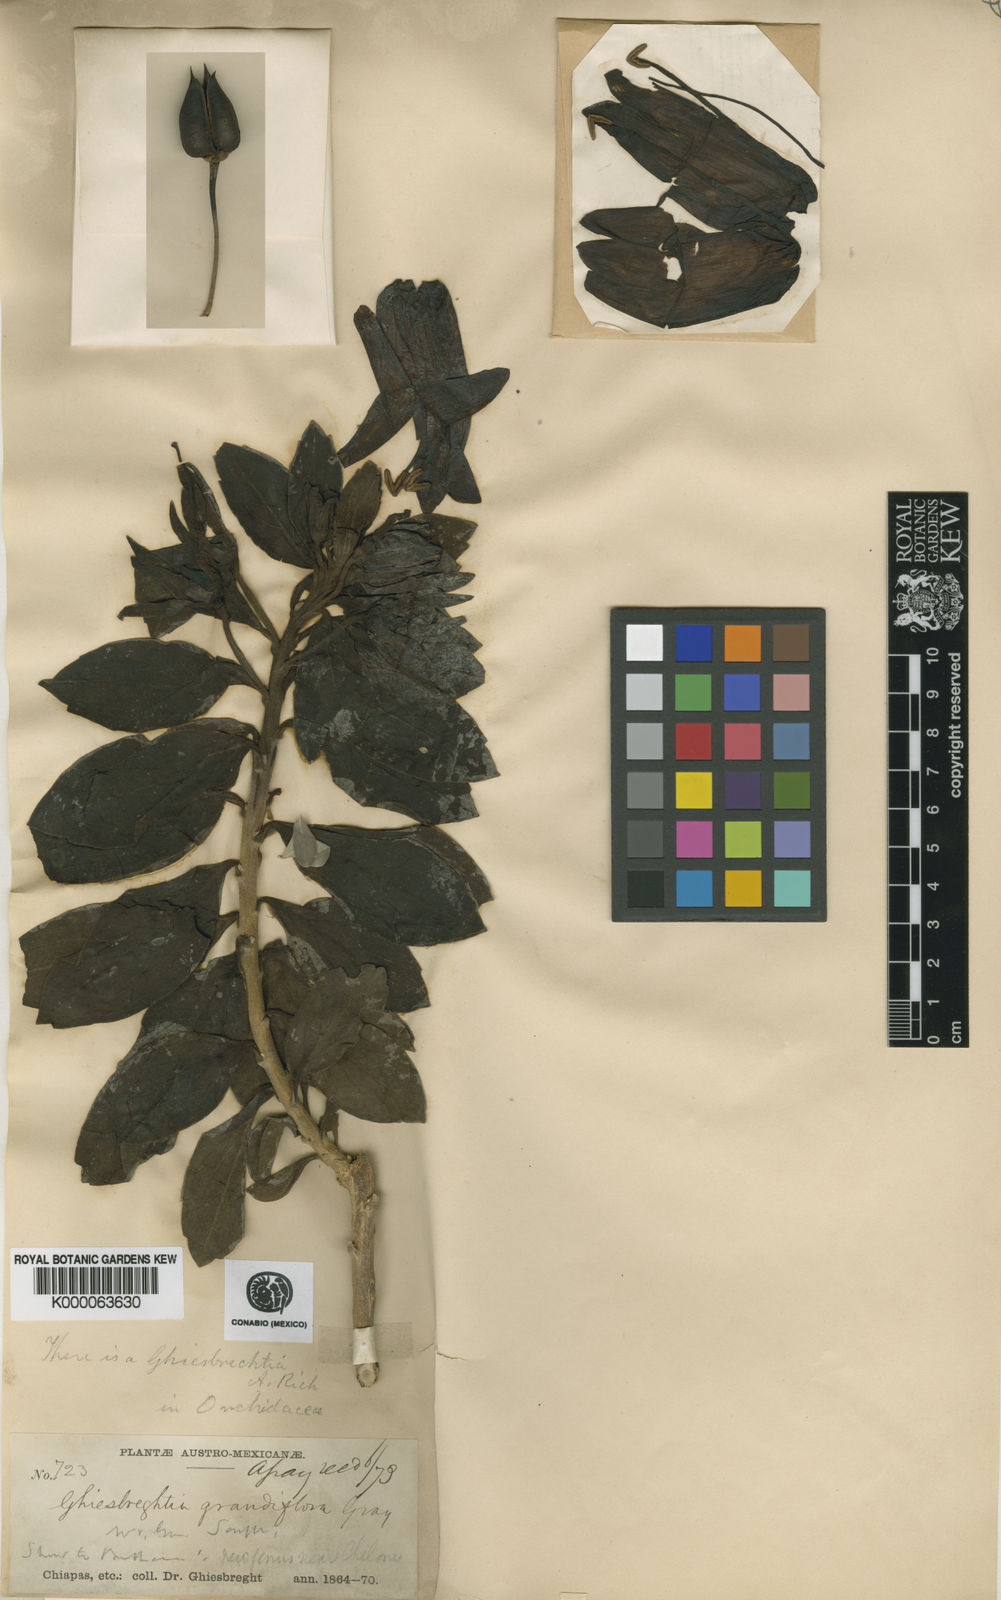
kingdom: Plantae
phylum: Tracheophyta
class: Magnoliopsida
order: Lamiales
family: Scrophulariaceae
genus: Eremogeton
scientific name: Eremogeton grandiflorus
